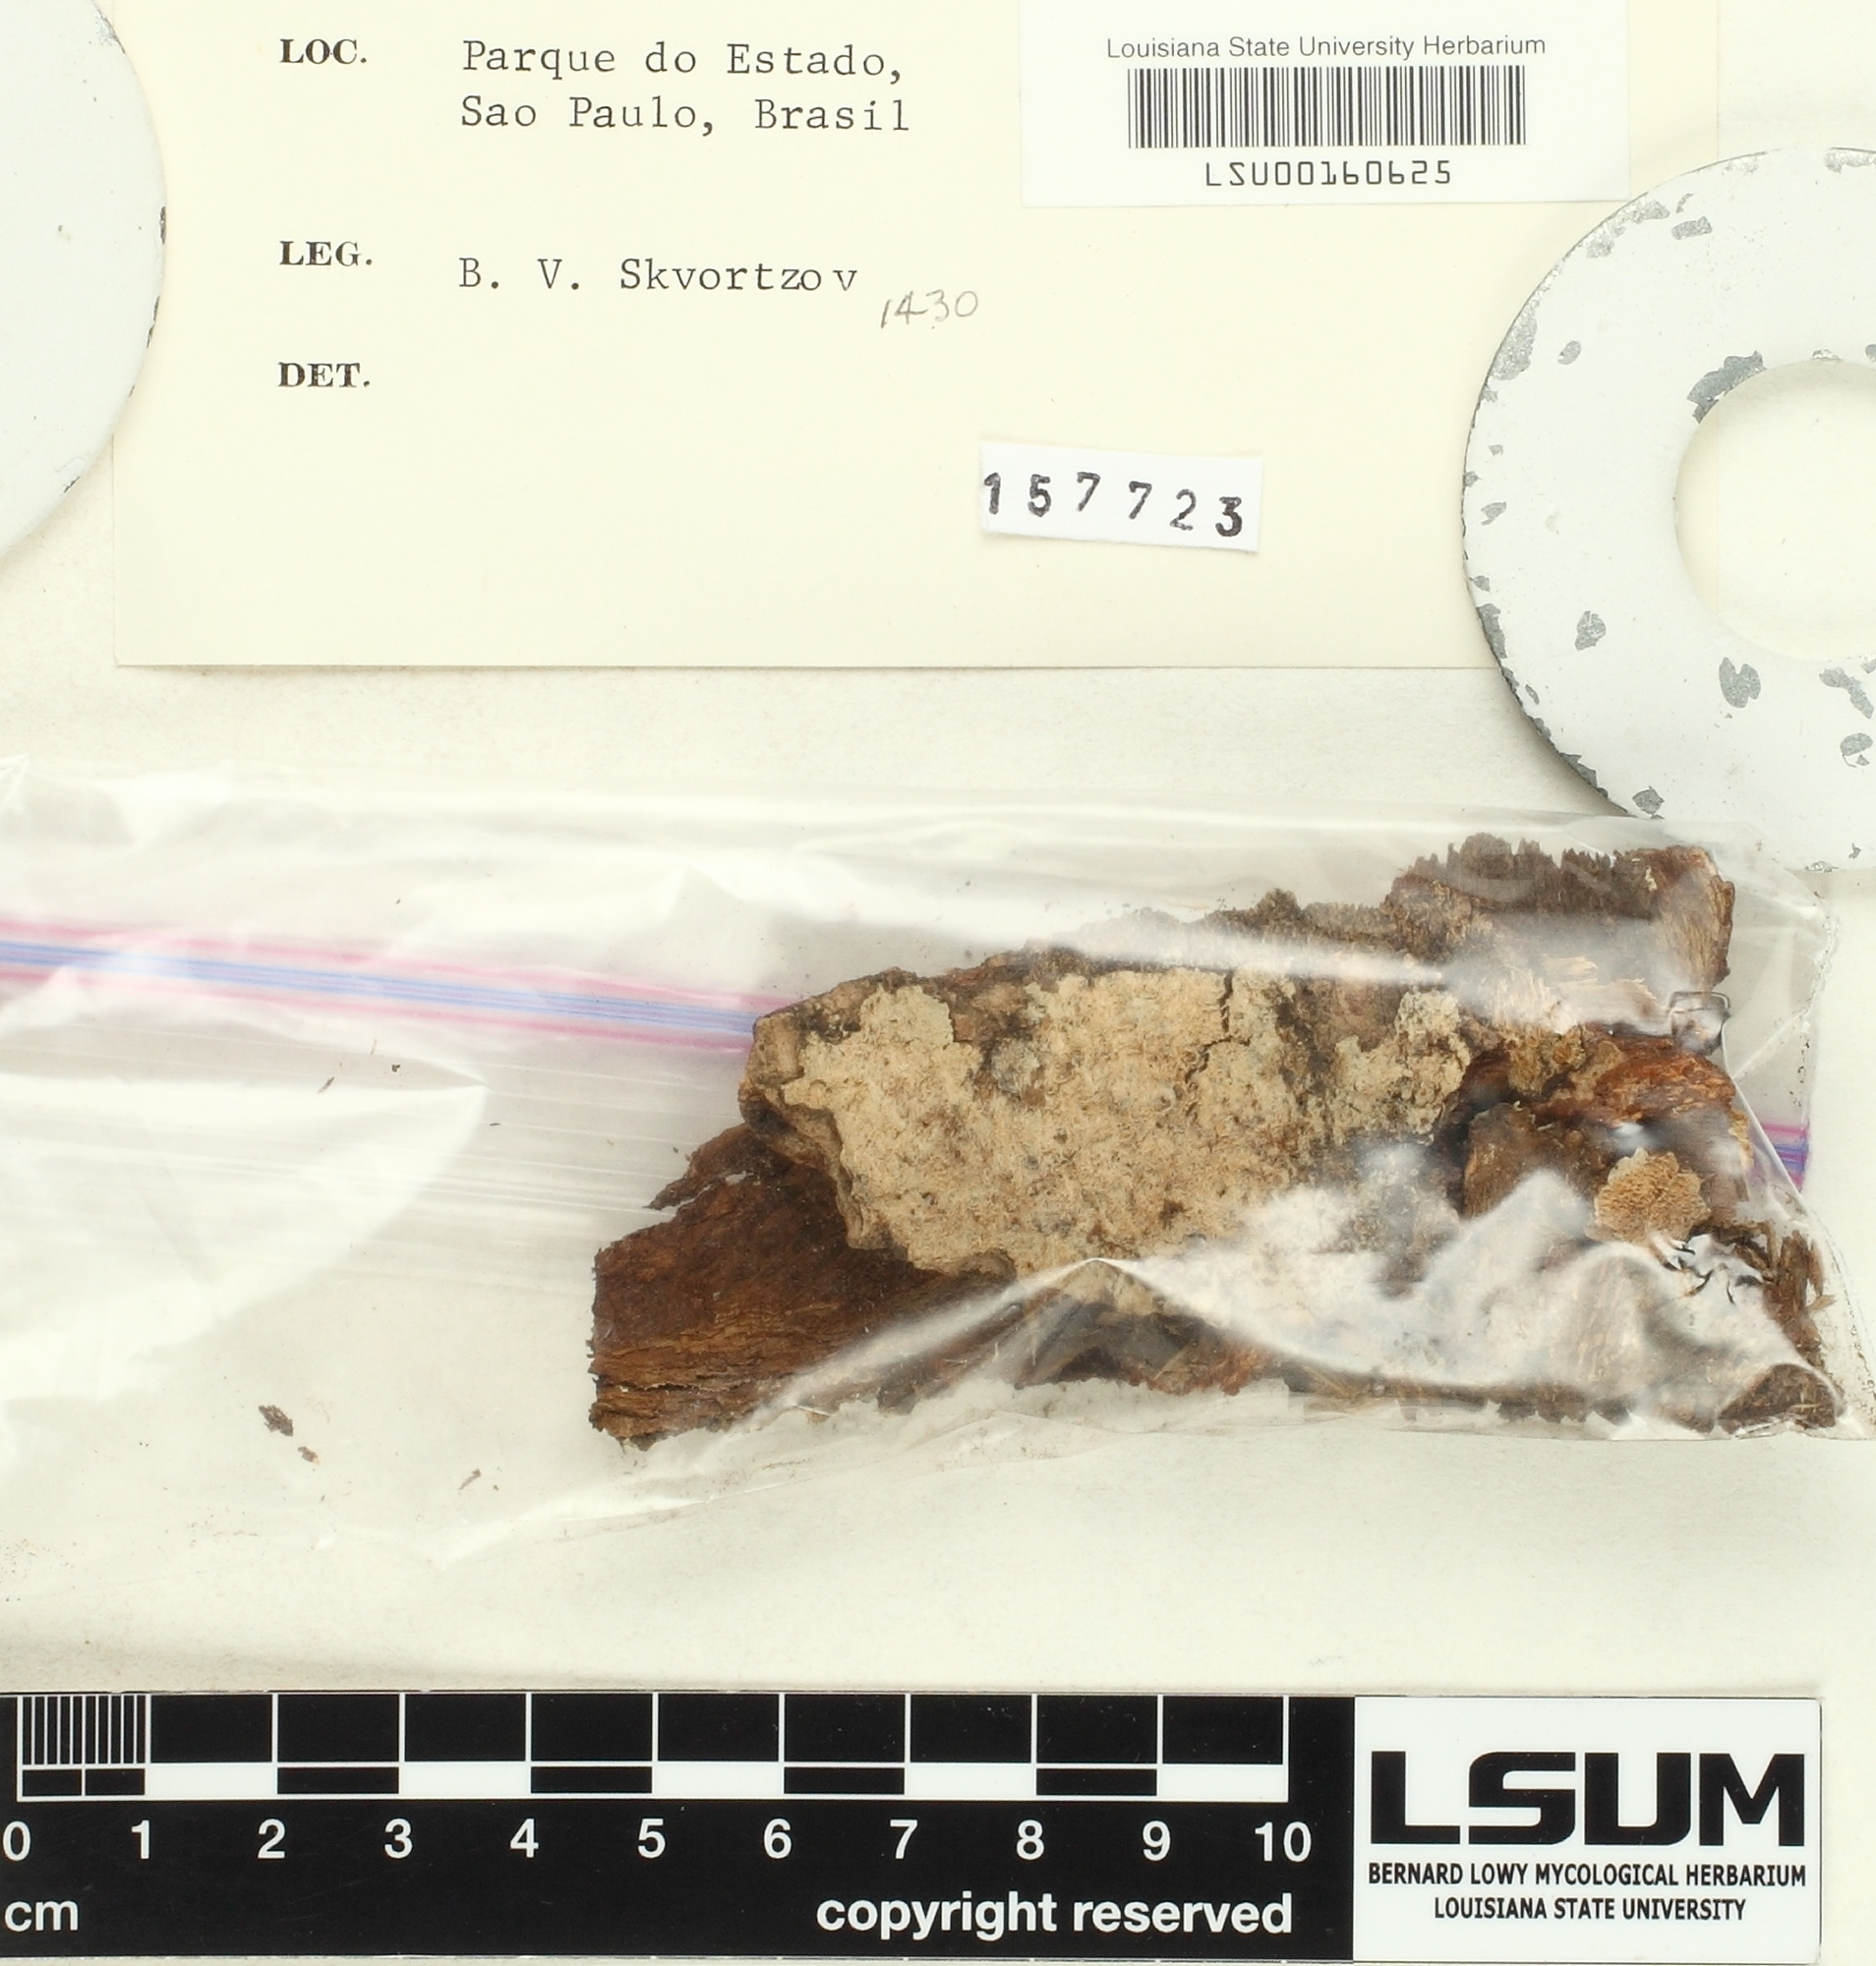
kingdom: Fungi
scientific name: Fungi
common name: Fungi
